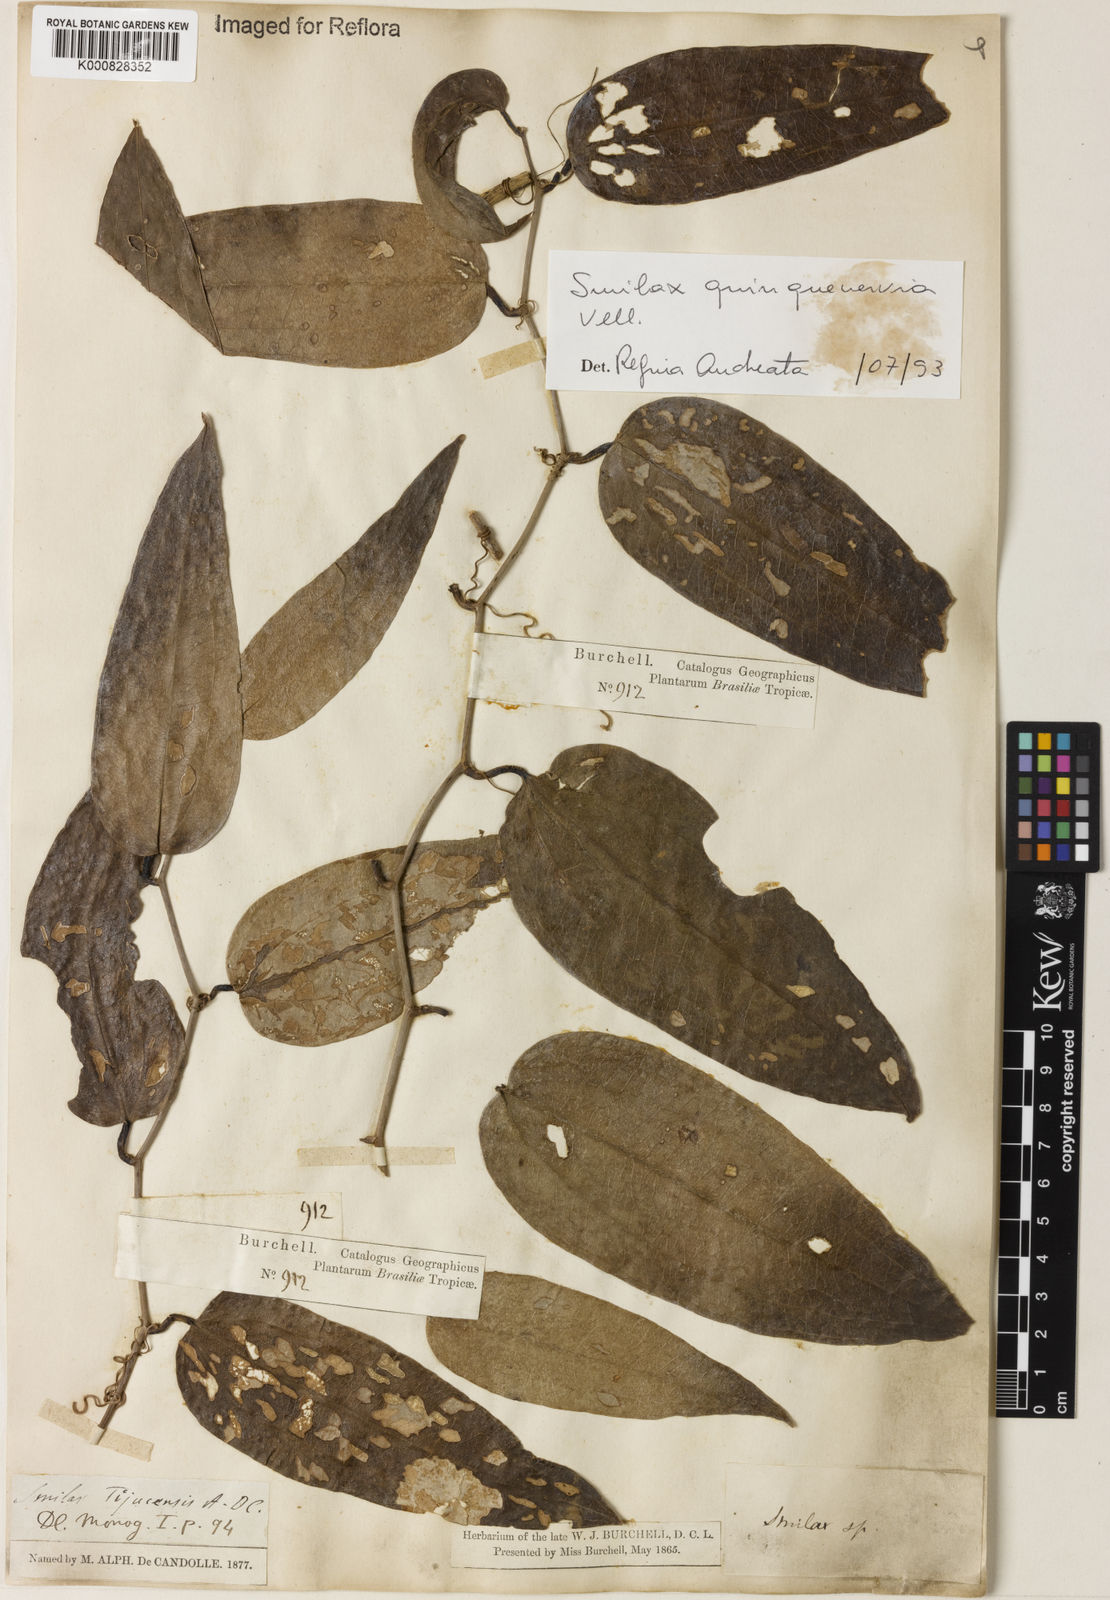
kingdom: Plantae
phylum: Tracheophyta
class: Liliopsida
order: Liliales
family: Smilacaceae
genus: Smilax
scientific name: Smilax quinquenervia
